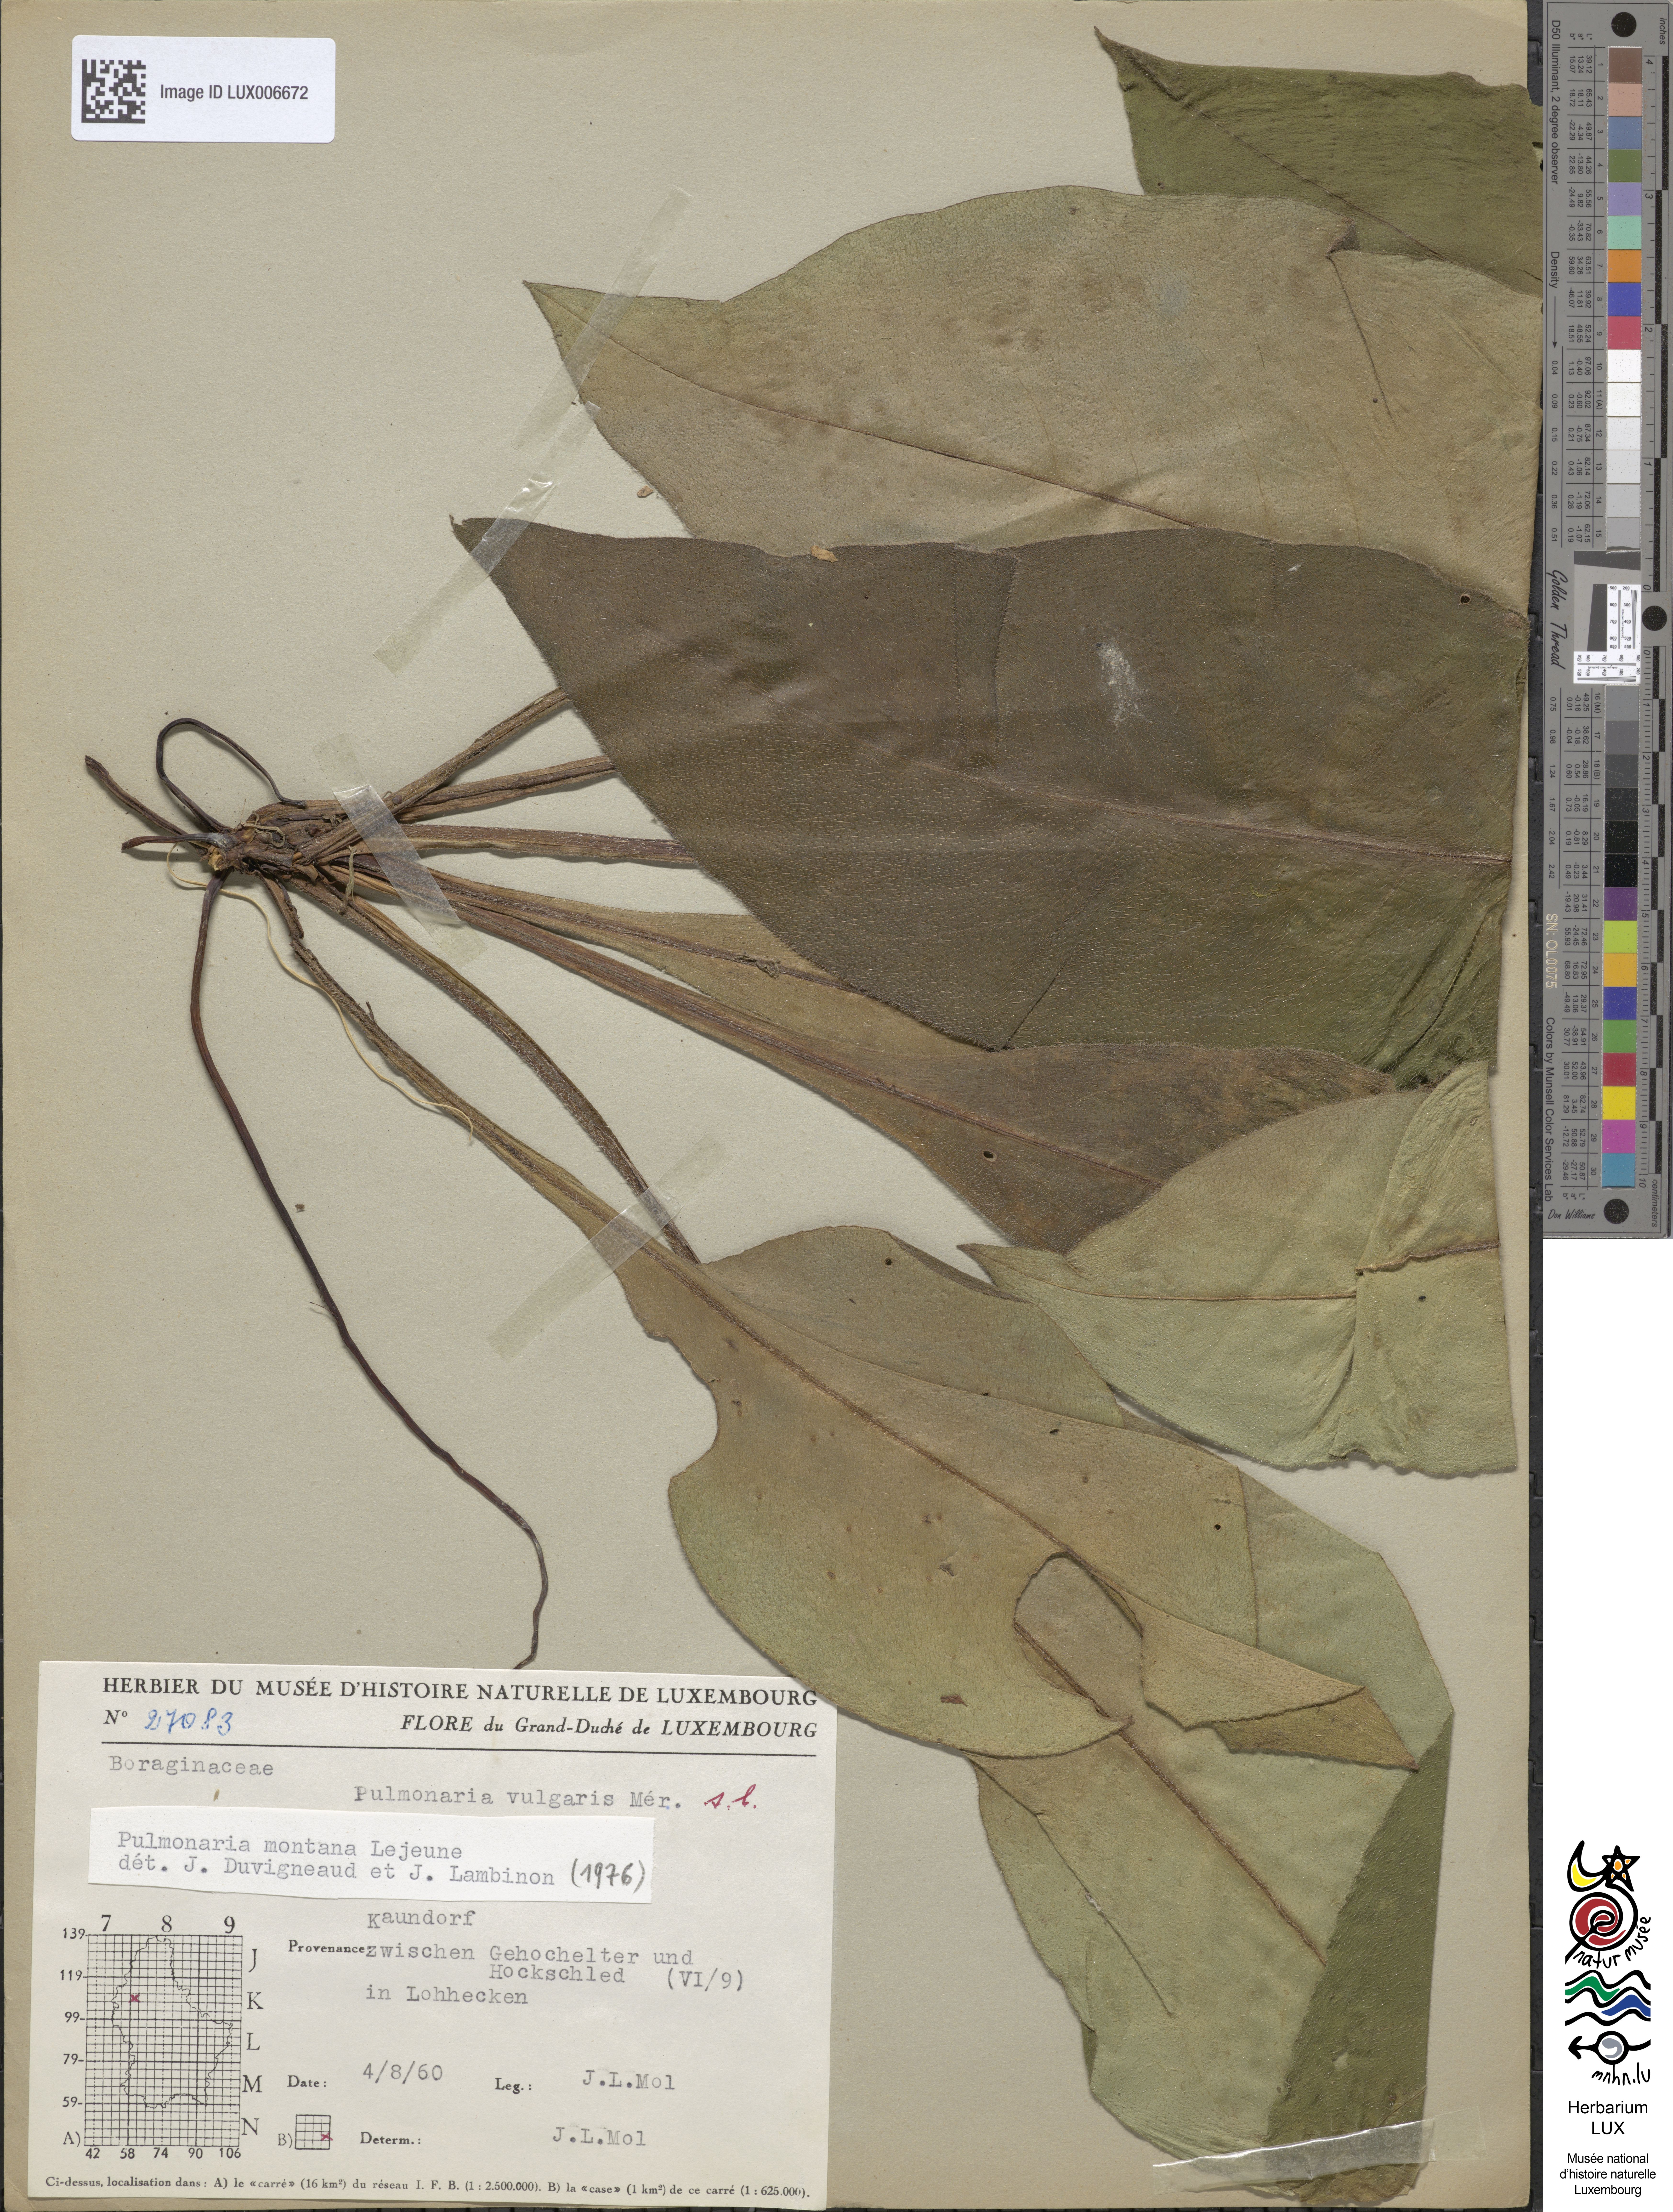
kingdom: Plantae
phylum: Tracheophyta
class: Magnoliopsida
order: Boraginales
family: Boraginaceae
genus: Pulmonaria
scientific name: Pulmonaria montana
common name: Mountain lungwort
